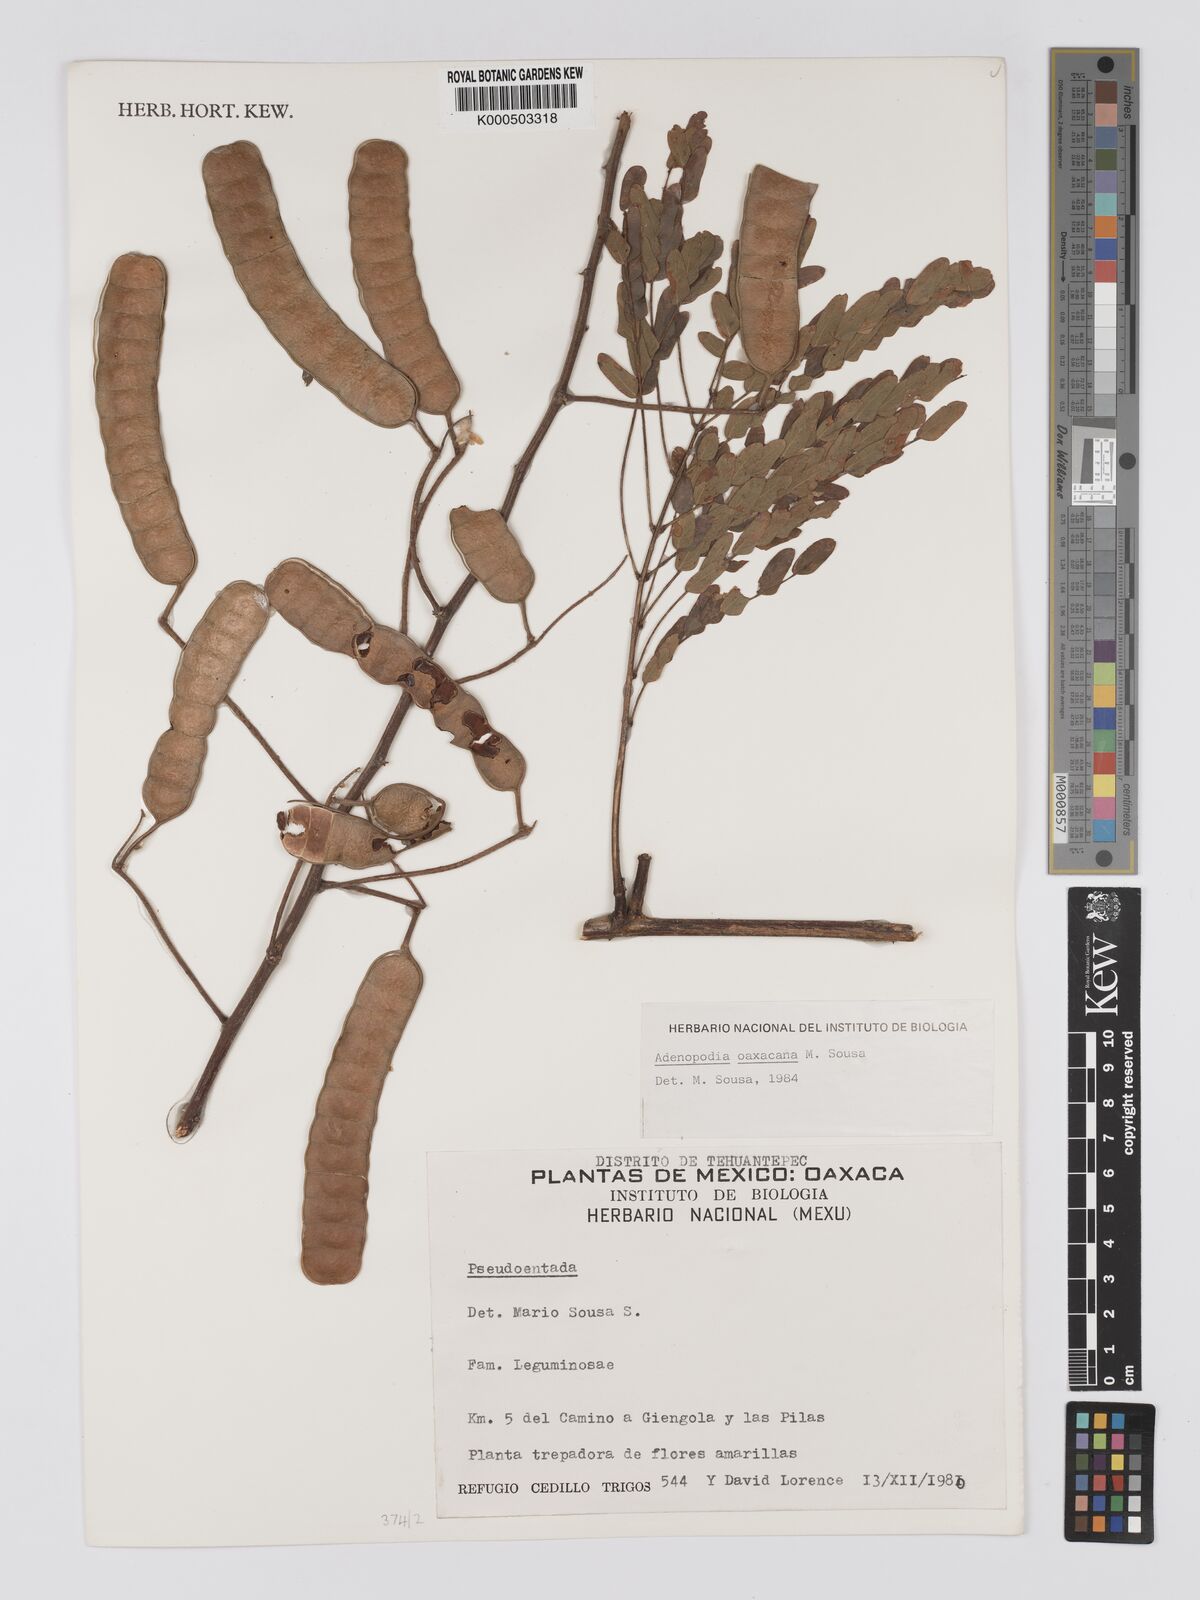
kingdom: Plantae
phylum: Tracheophyta
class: Magnoliopsida
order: Fabales
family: Fabaceae
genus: Adenopodia
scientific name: Adenopodia oaxacana
